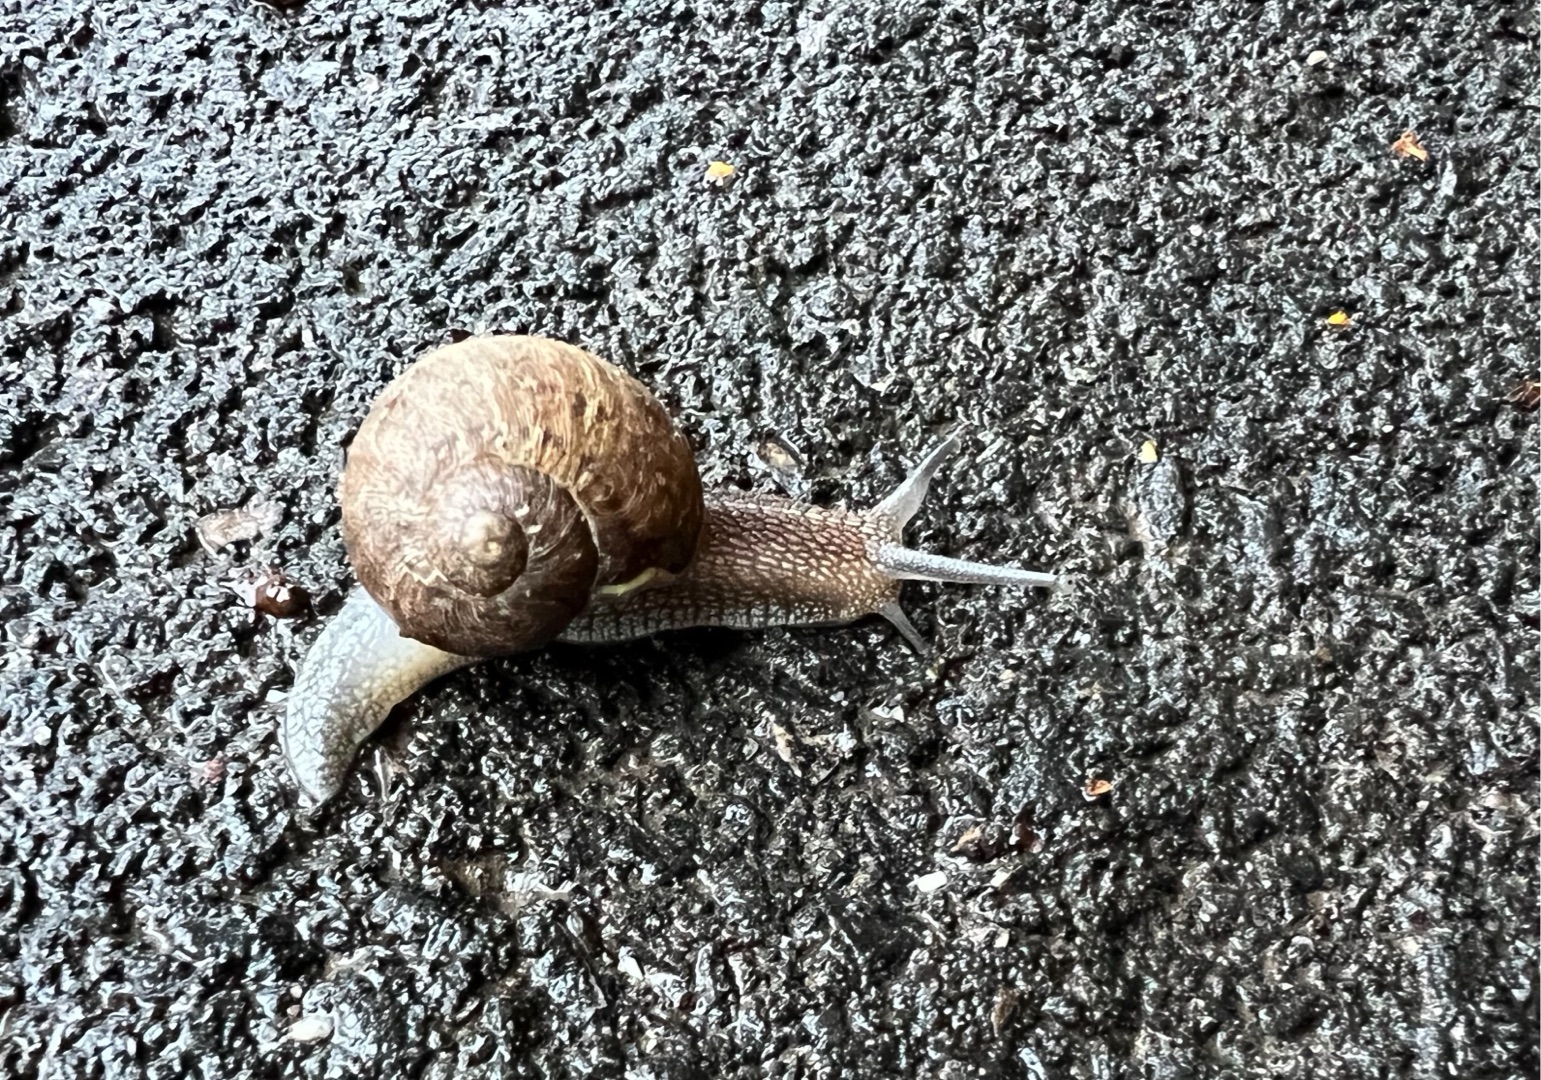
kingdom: Animalia
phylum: Mollusca
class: Gastropoda
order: Stylommatophora
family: Helicidae
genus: Cornu
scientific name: Cornu aspersum
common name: Plettet voldsnegl
